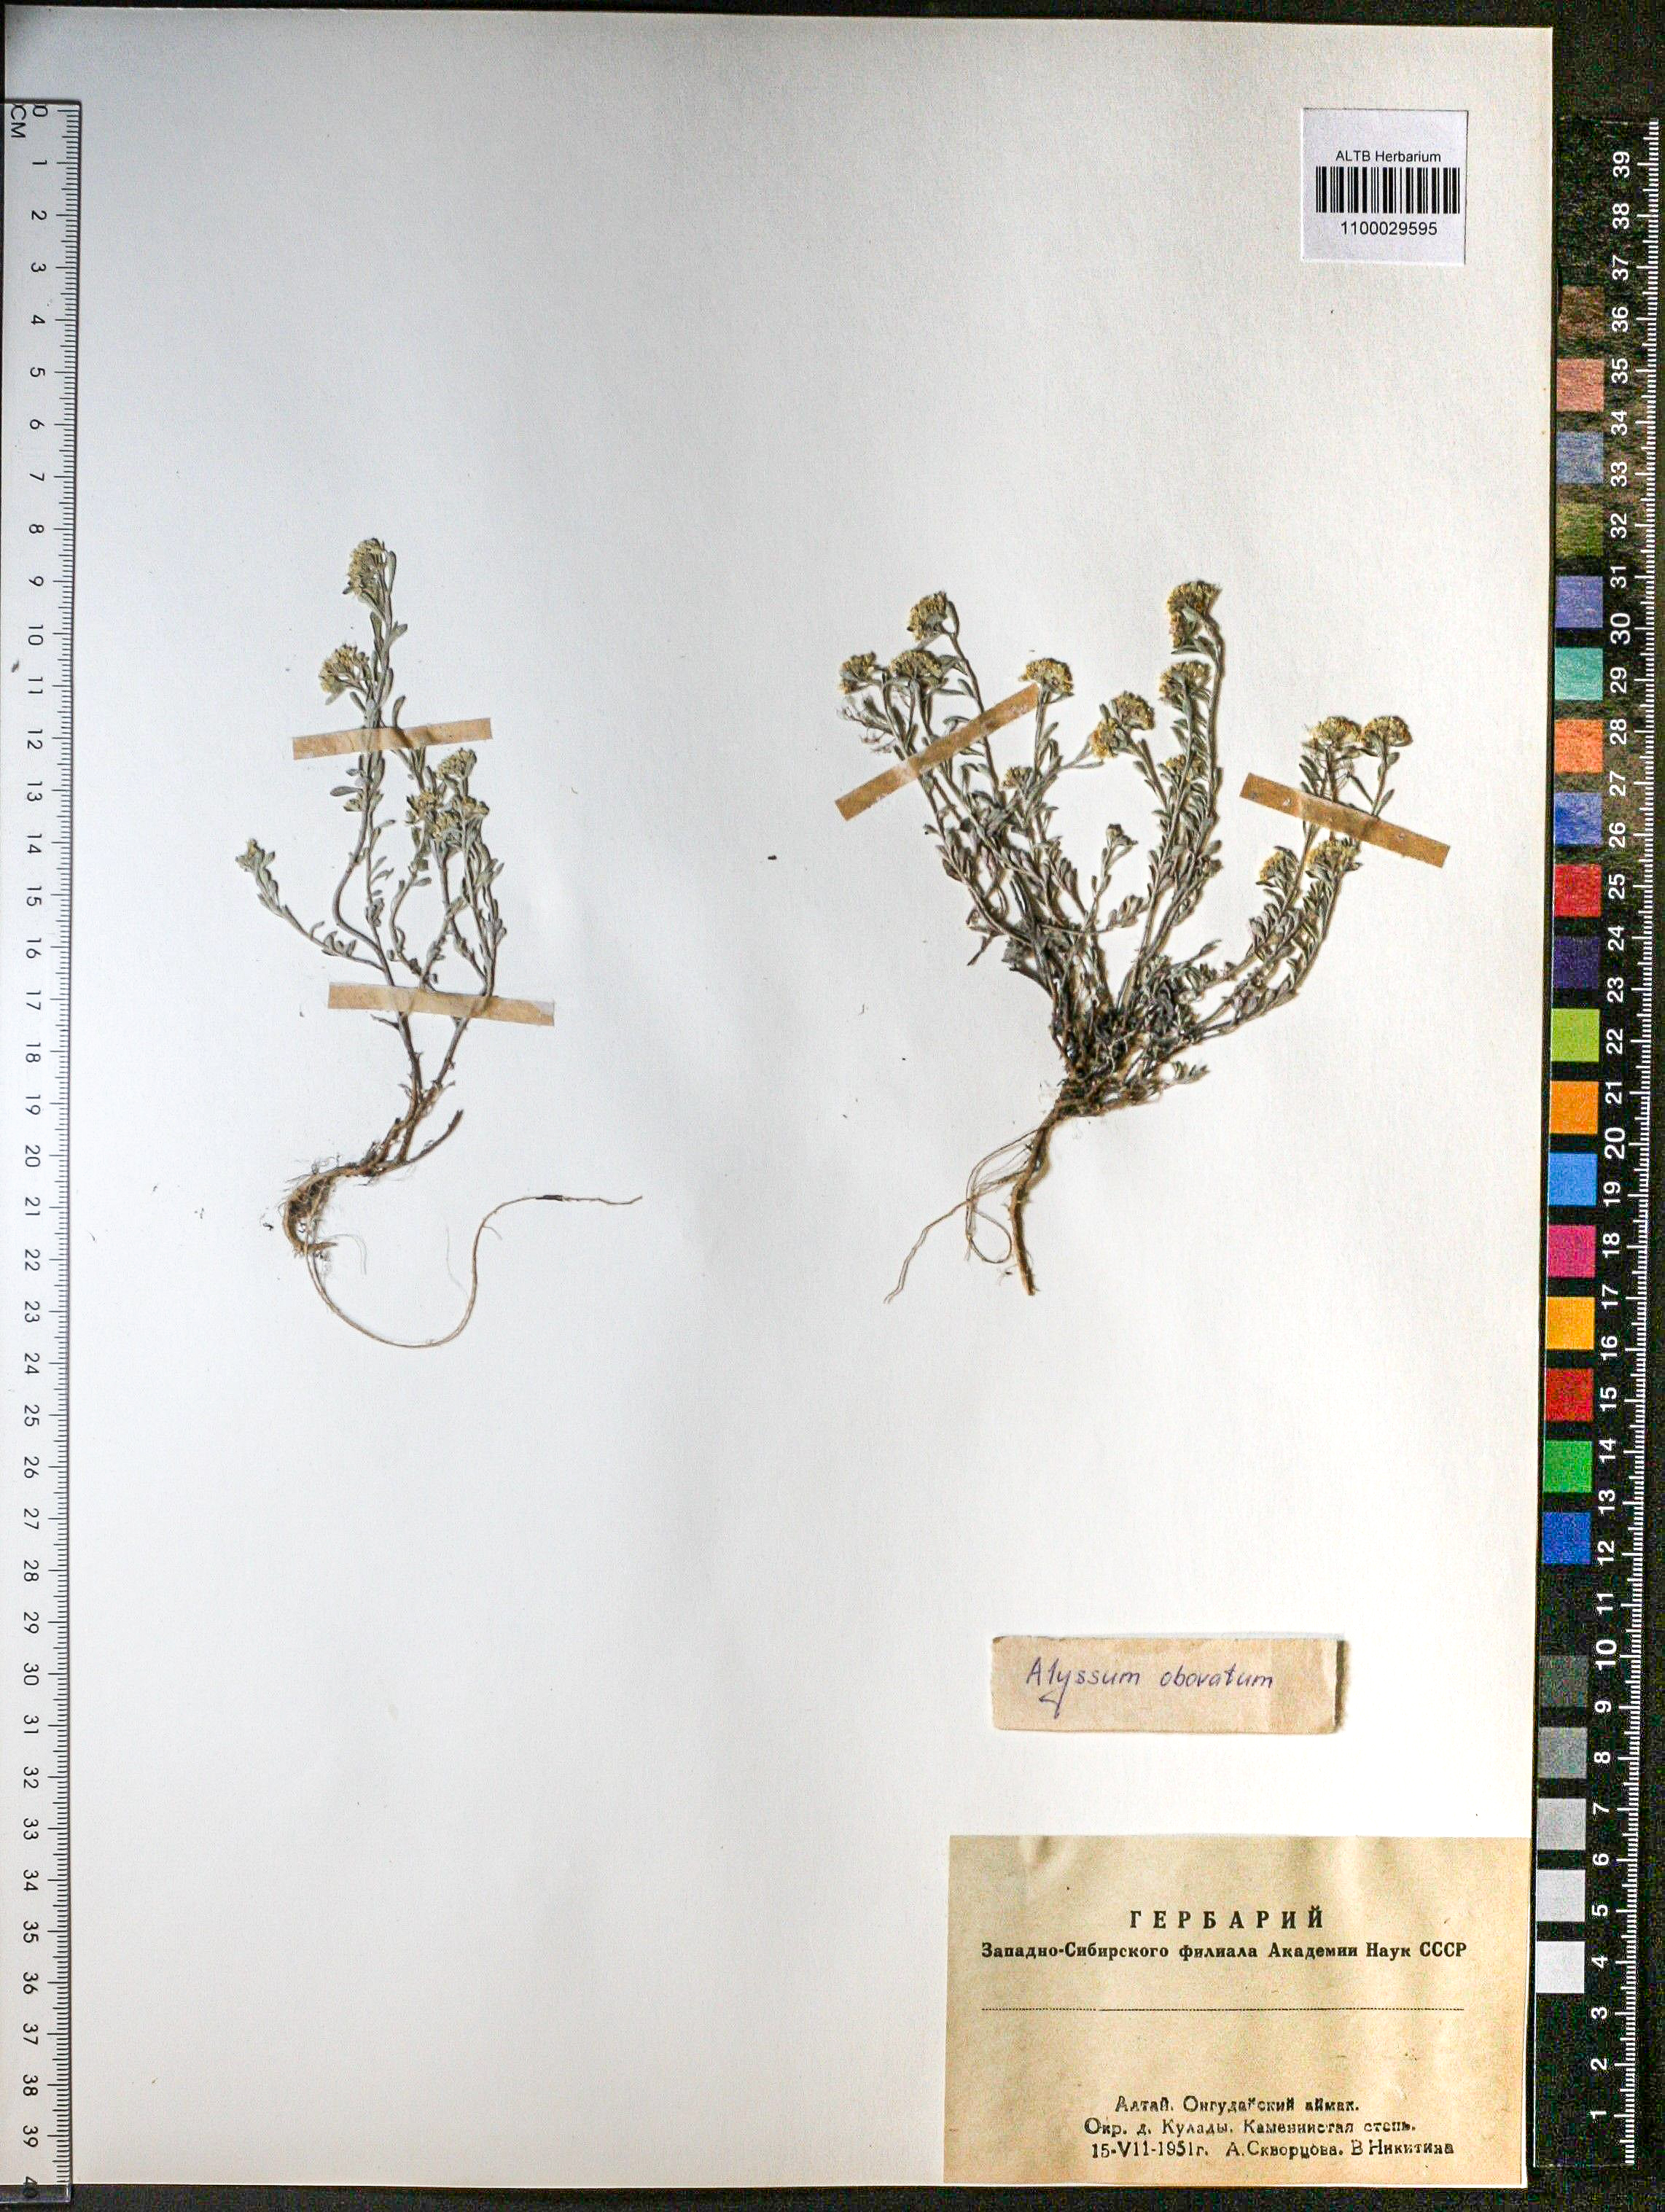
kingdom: Plantae
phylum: Tracheophyta
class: Magnoliopsida
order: Brassicales
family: Brassicaceae
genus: Odontarrhena
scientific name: Odontarrhena obovata
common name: American alyssum
